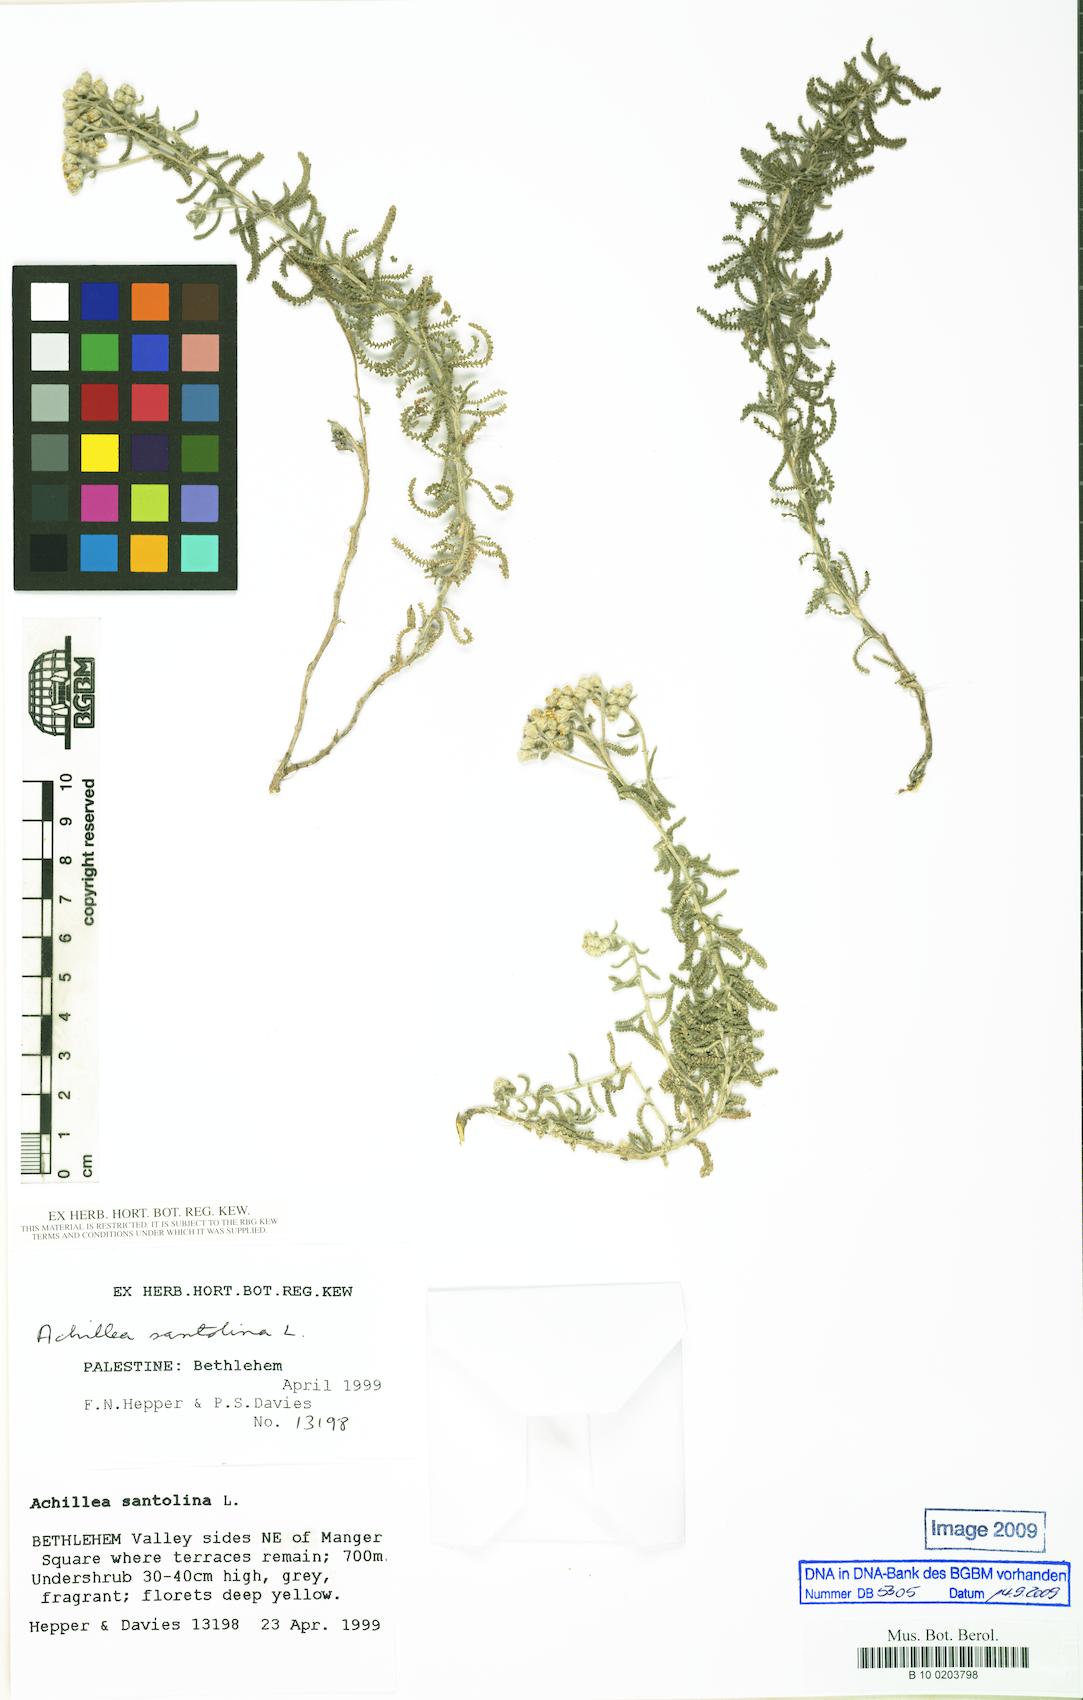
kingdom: Plantae
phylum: Tracheophyta
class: Magnoliopsida
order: Asterales
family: Asteraceae
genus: Achillea
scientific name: Achillea tenuifolia
